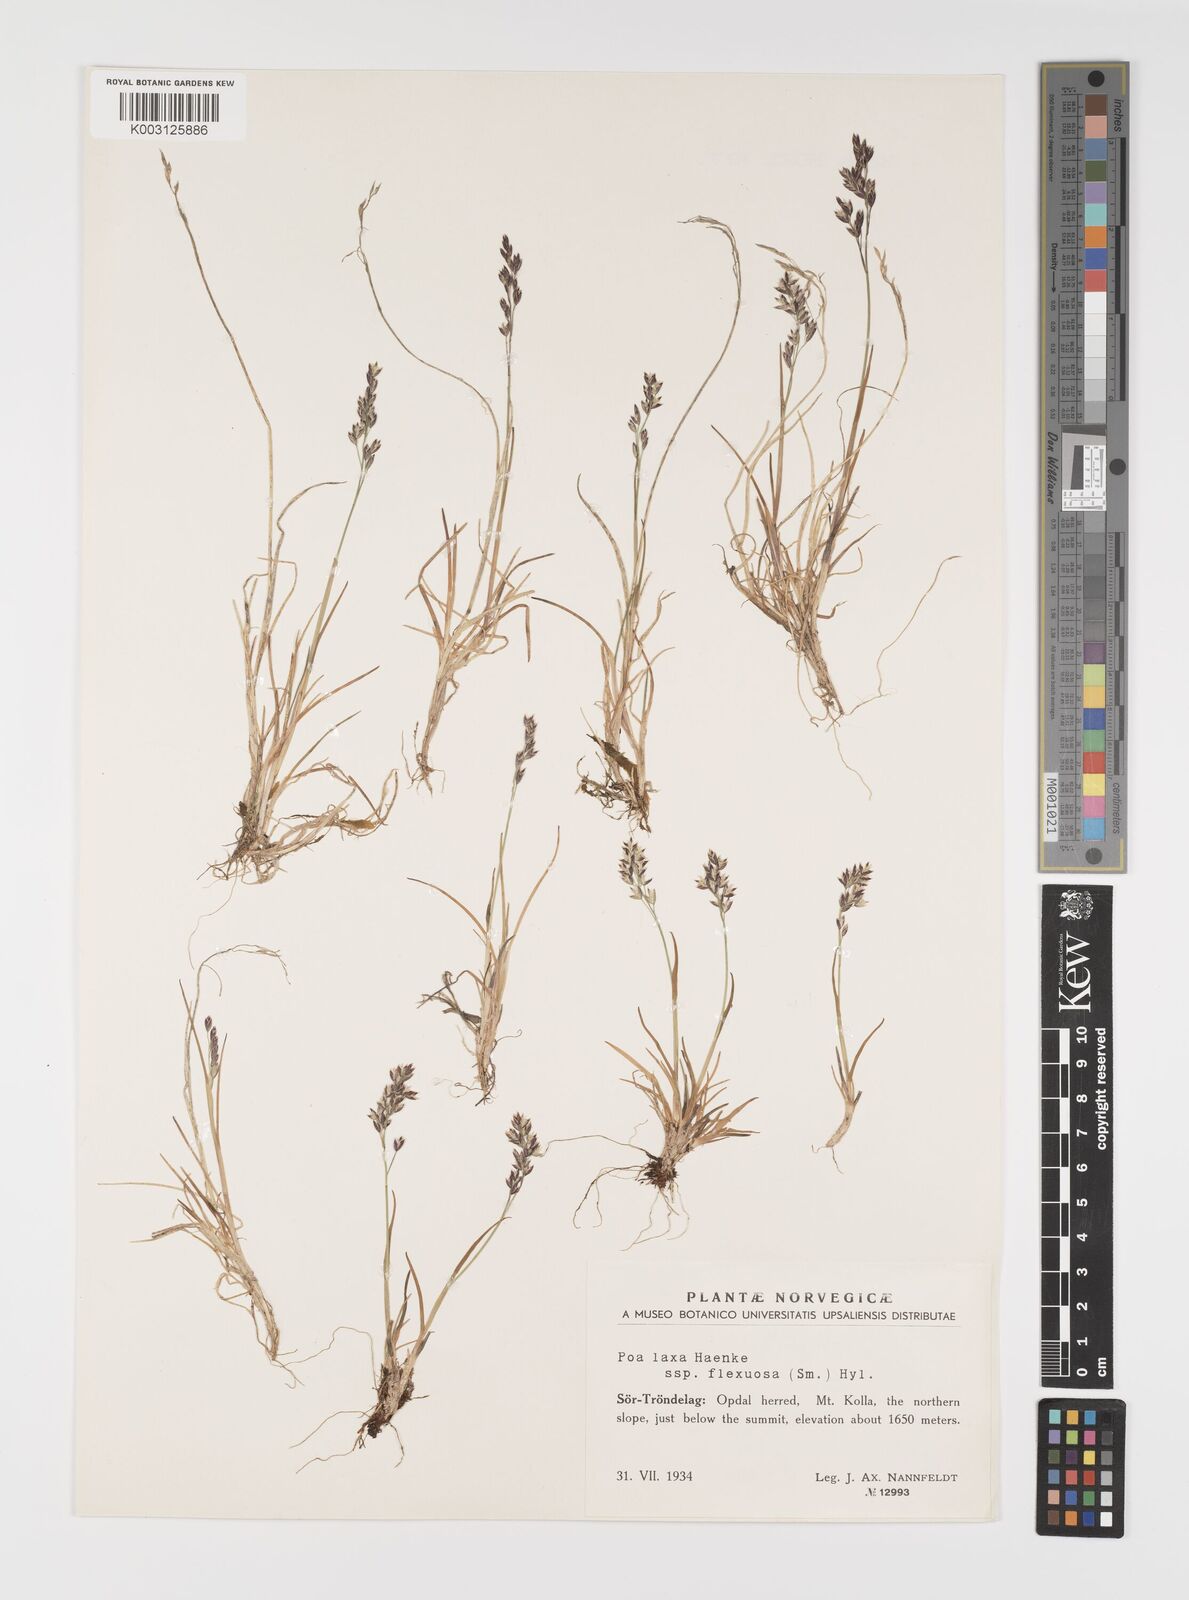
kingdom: Plantae
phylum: Tracheophyta
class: Liliopsida
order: Poales
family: Poaceae
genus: Eragrostis
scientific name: Eragrostis cilianensis
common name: Stinkgrass
